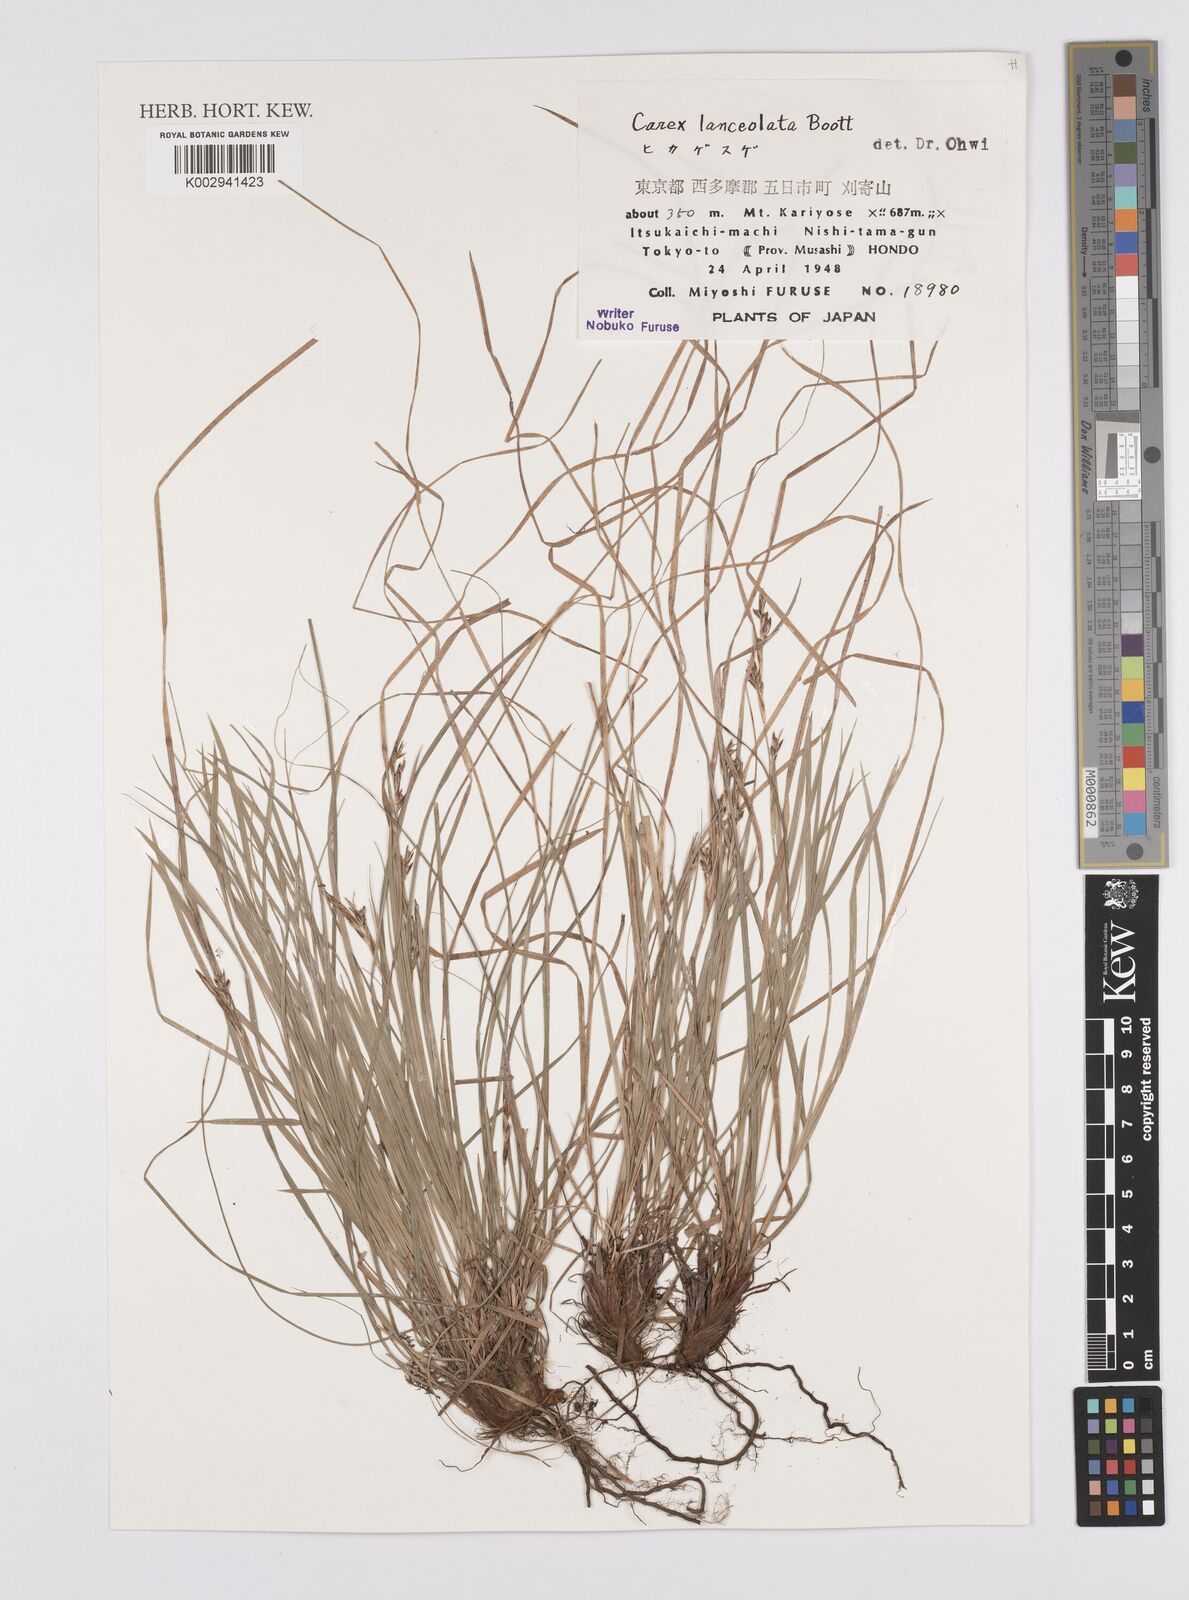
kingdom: Plantae
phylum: Tracheophyta
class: Liliopsida
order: Poales
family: Cyperaceae
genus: Carex
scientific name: Carex lanceolata
